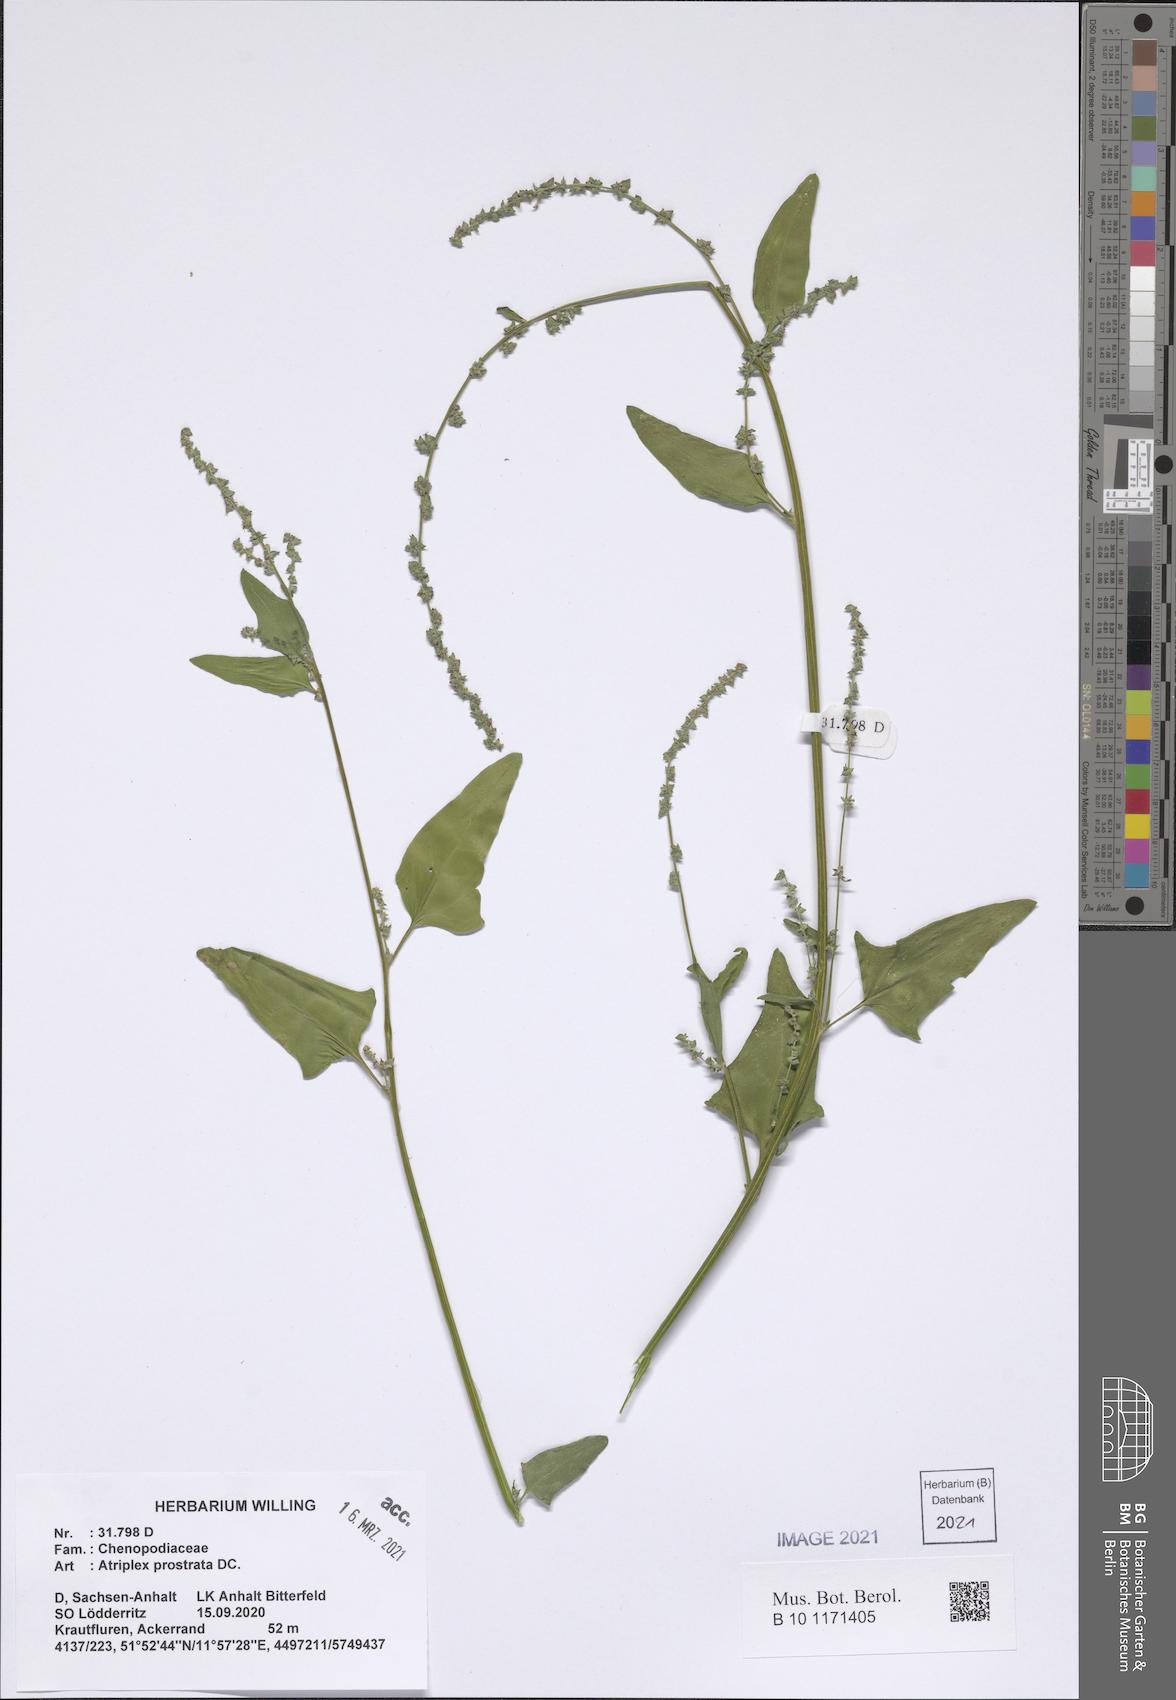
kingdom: Plantae
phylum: Tracheophyta
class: Magnoliopsida
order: Caryophyllales
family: Amaranthaceae
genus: Atriplex
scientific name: Atriplex prostrata
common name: Spear-leaved orache
